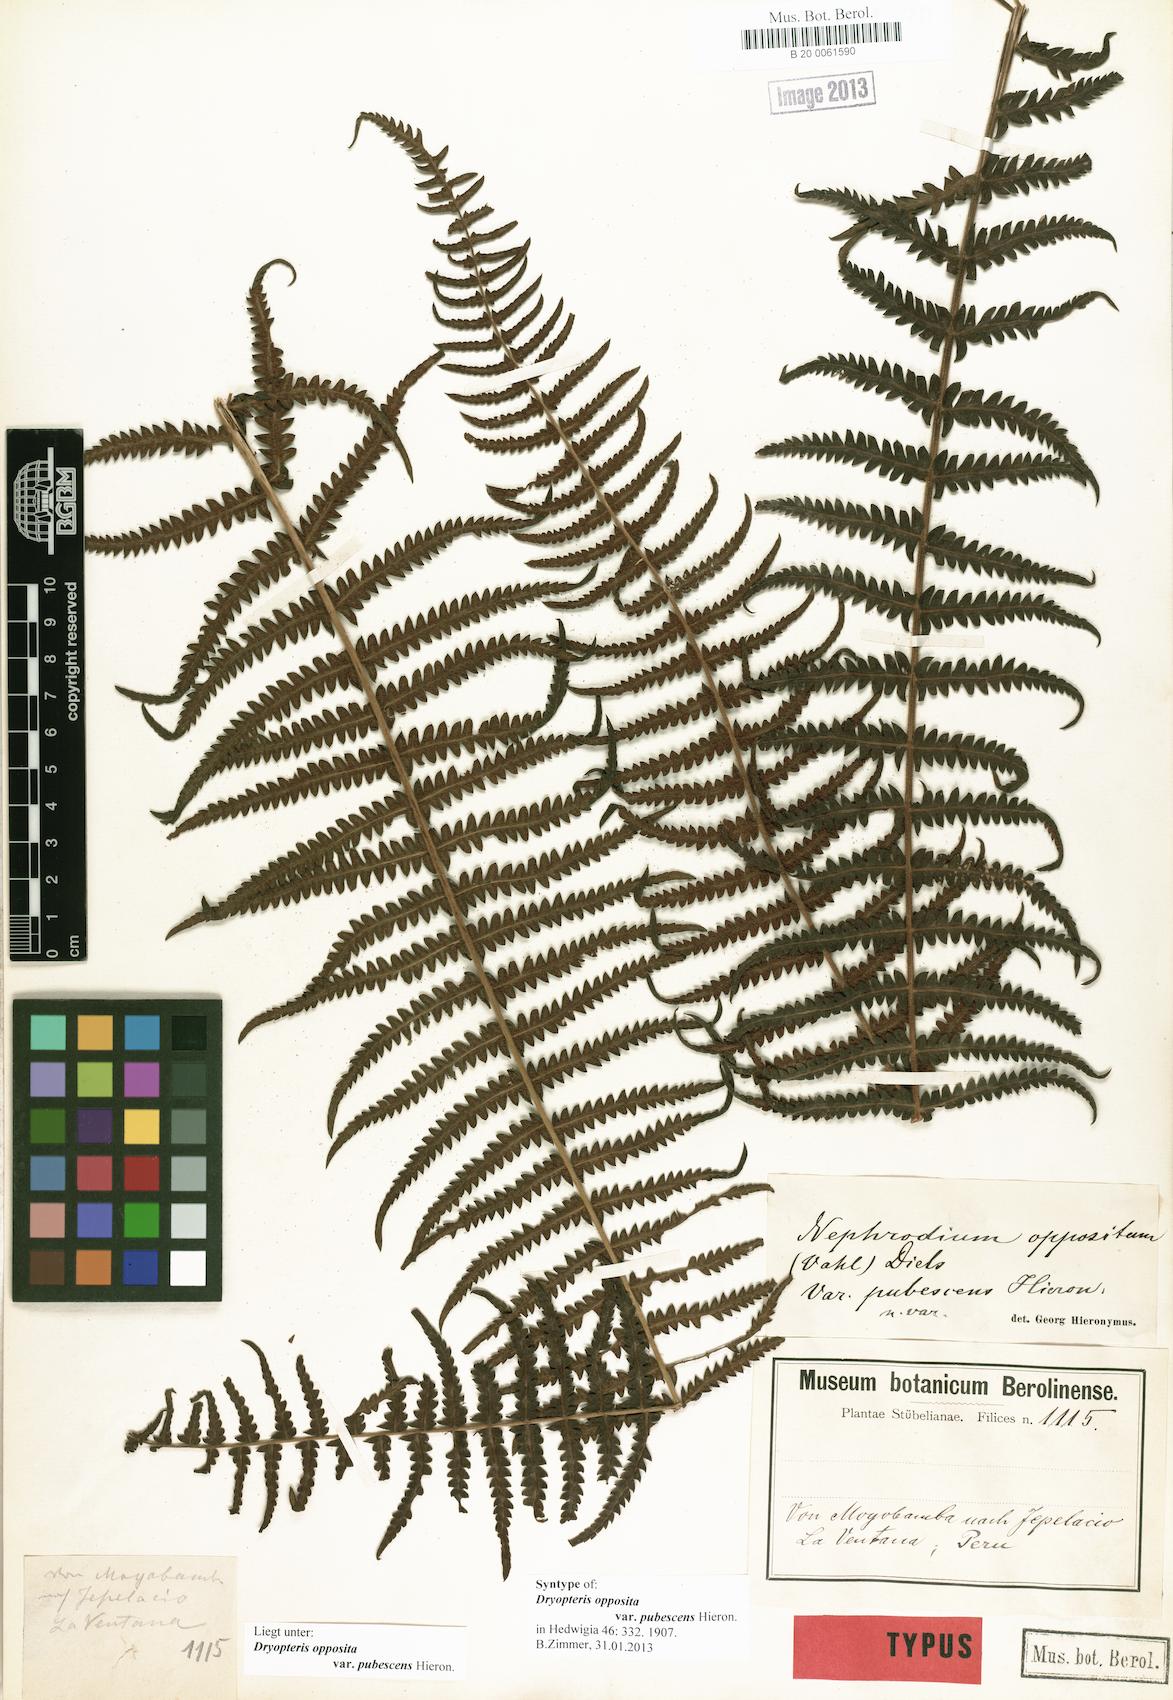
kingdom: Plantae
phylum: Tracheophyta
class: Polypodiopsida
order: Polypodiales
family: Thelypteridaceae
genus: Amauropelta
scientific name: Amauropelta opposita
